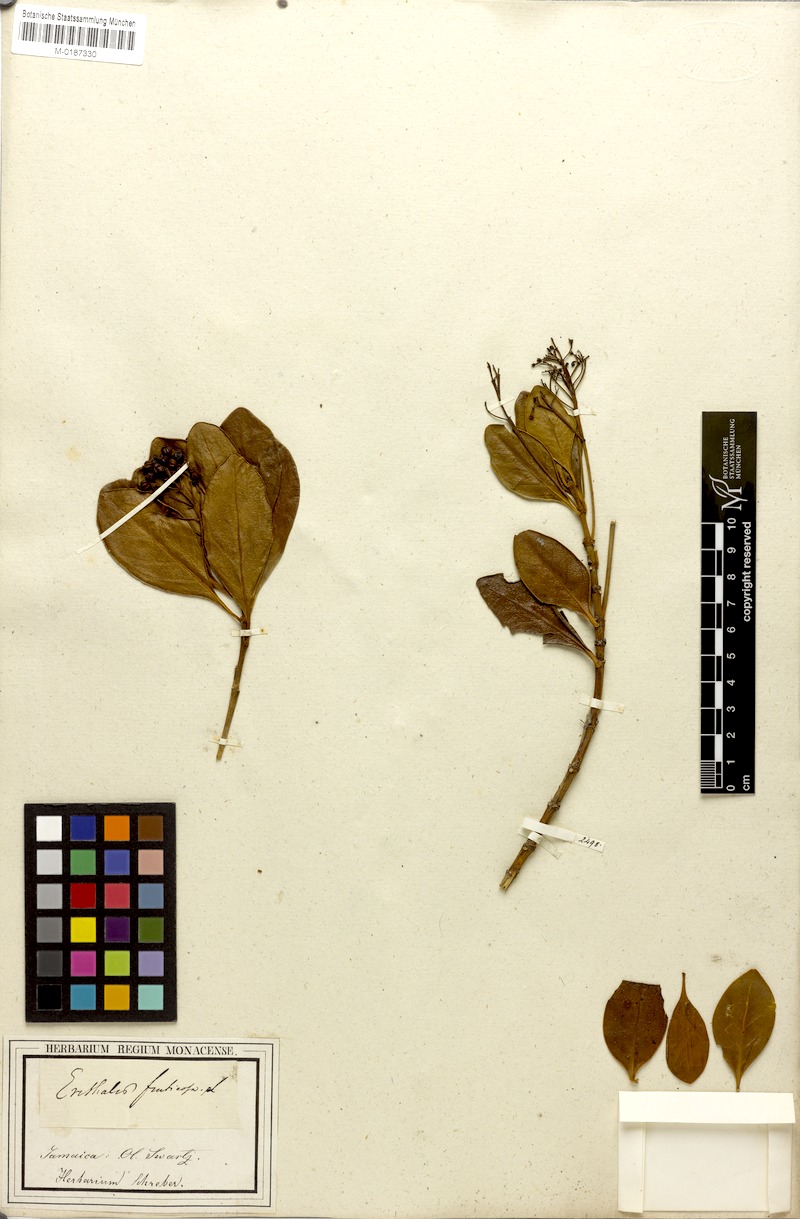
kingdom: Plantae
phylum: Tracheophyta
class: Magnoliopsida
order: Gentianales
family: Rubiaceae
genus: Erithalis
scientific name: Erithalis fruticosa
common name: Candlewood
